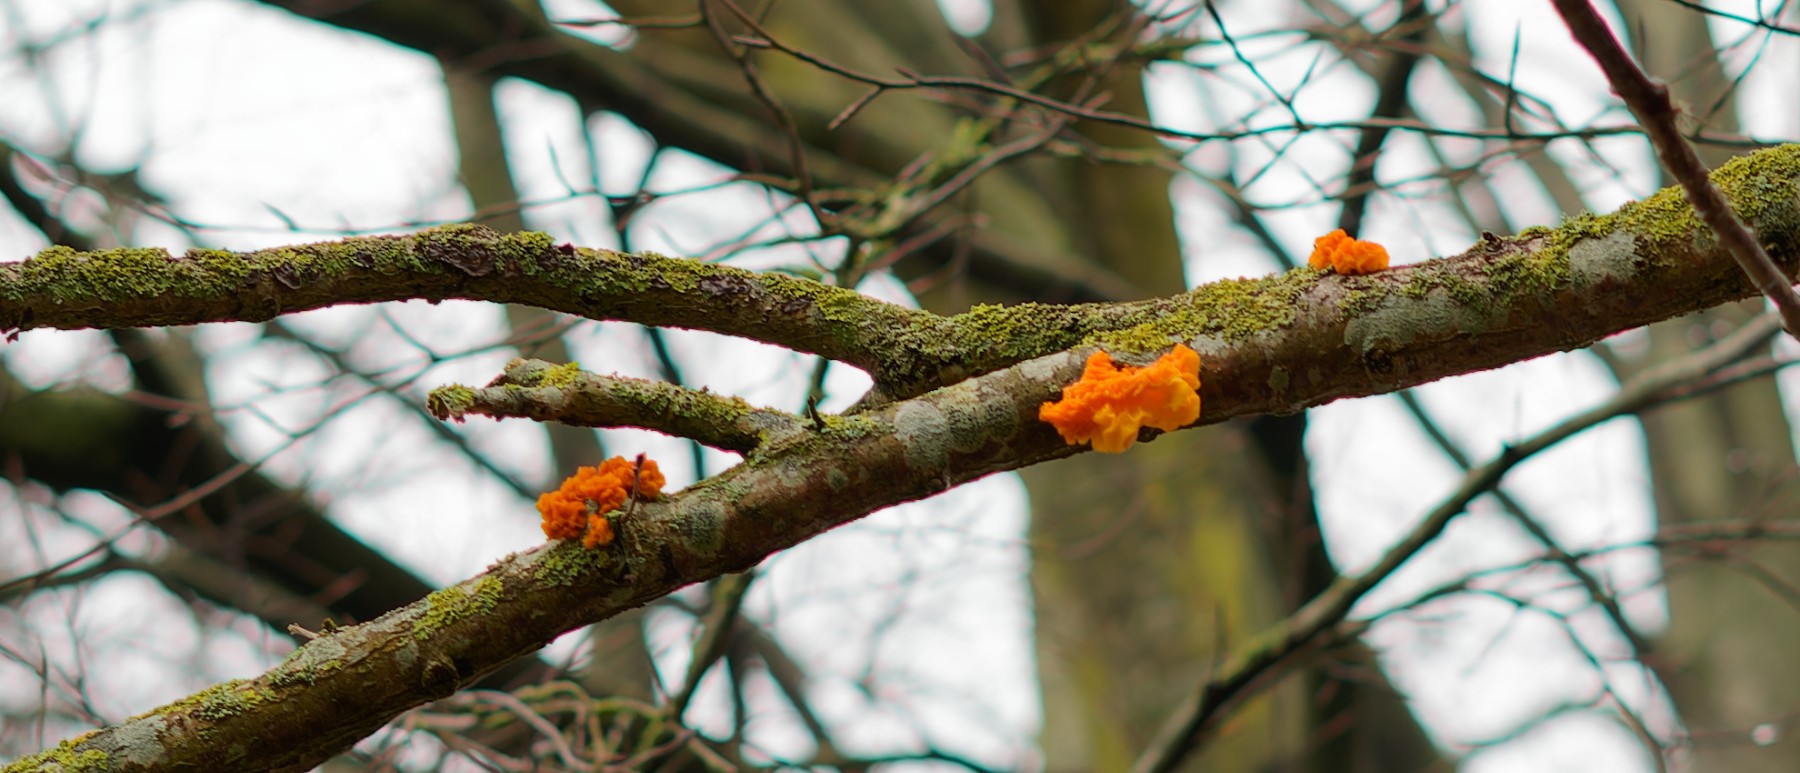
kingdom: Fungi
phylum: Basidiomycota
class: Tremellomycetes
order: Tremellales
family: Tremellaceae
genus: Tremella
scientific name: Tremella mesenterica
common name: gul bævresvamp
